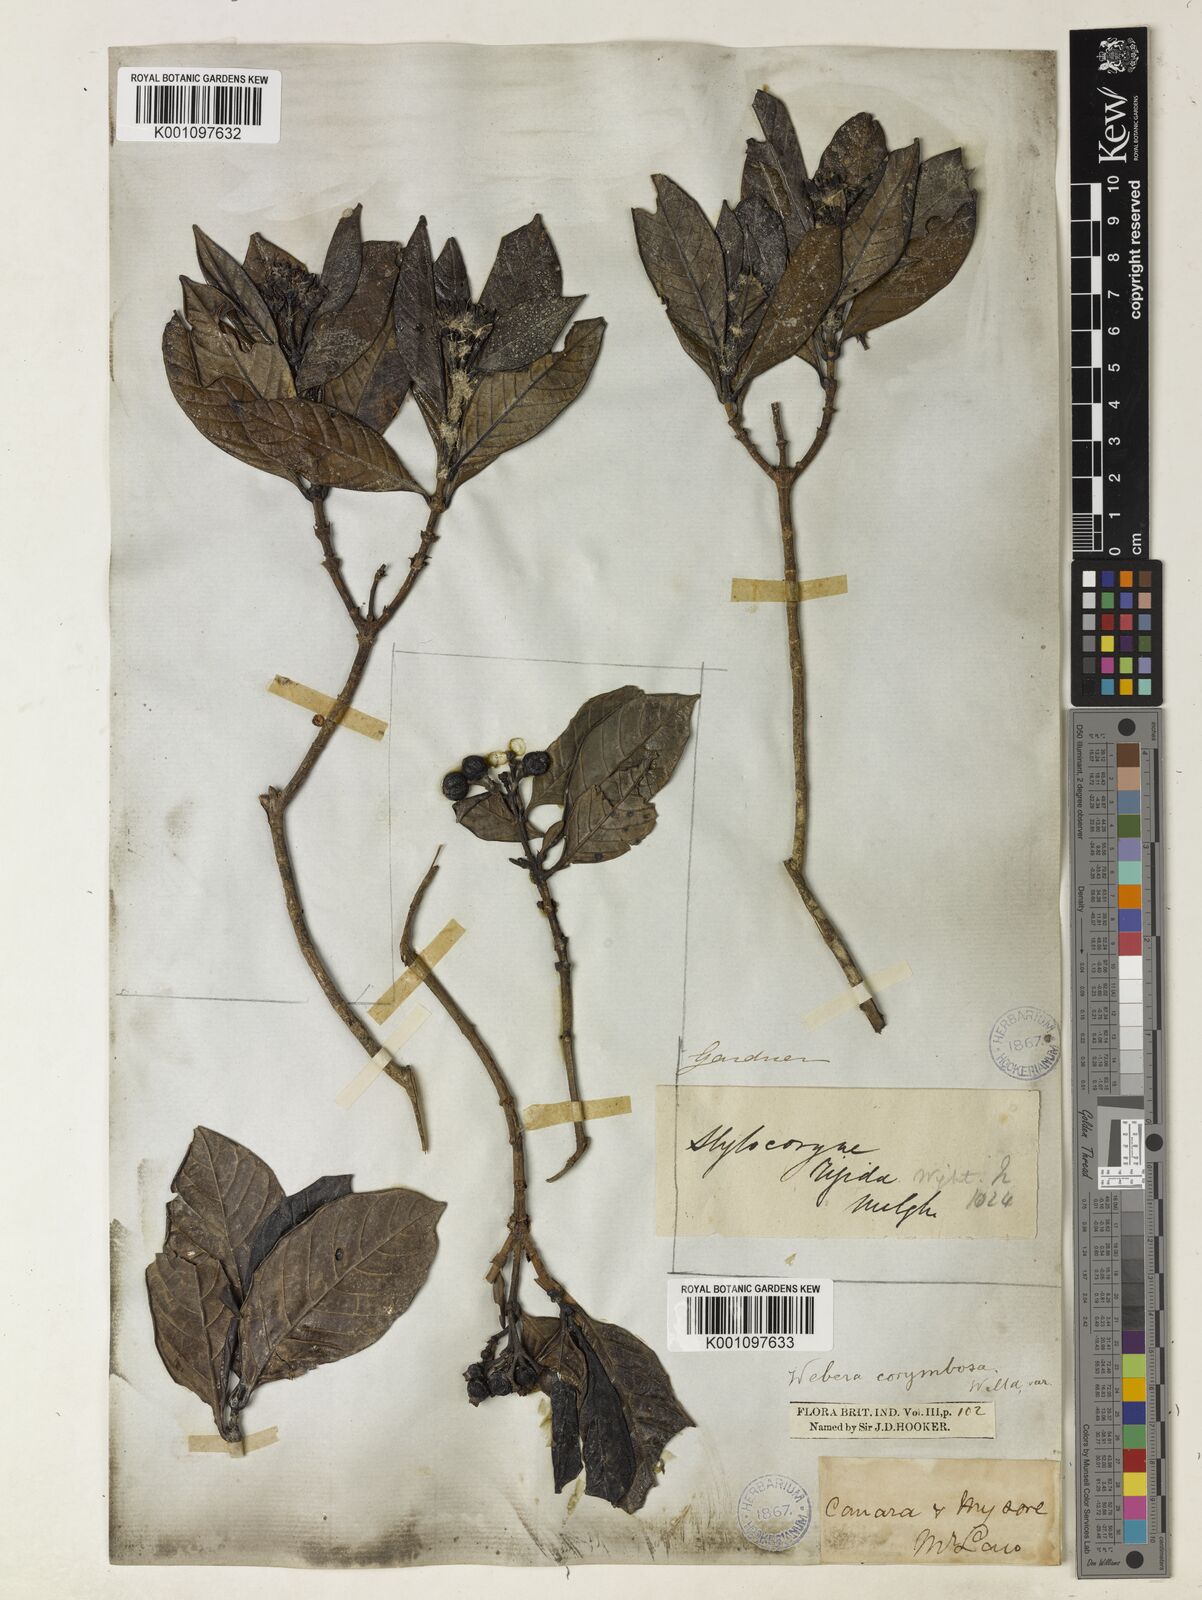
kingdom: Plantae
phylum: Tracheophyta
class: Magnoliopsida
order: Gentianales
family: Rubiaceae
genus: Tarenna
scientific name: Tarenna
